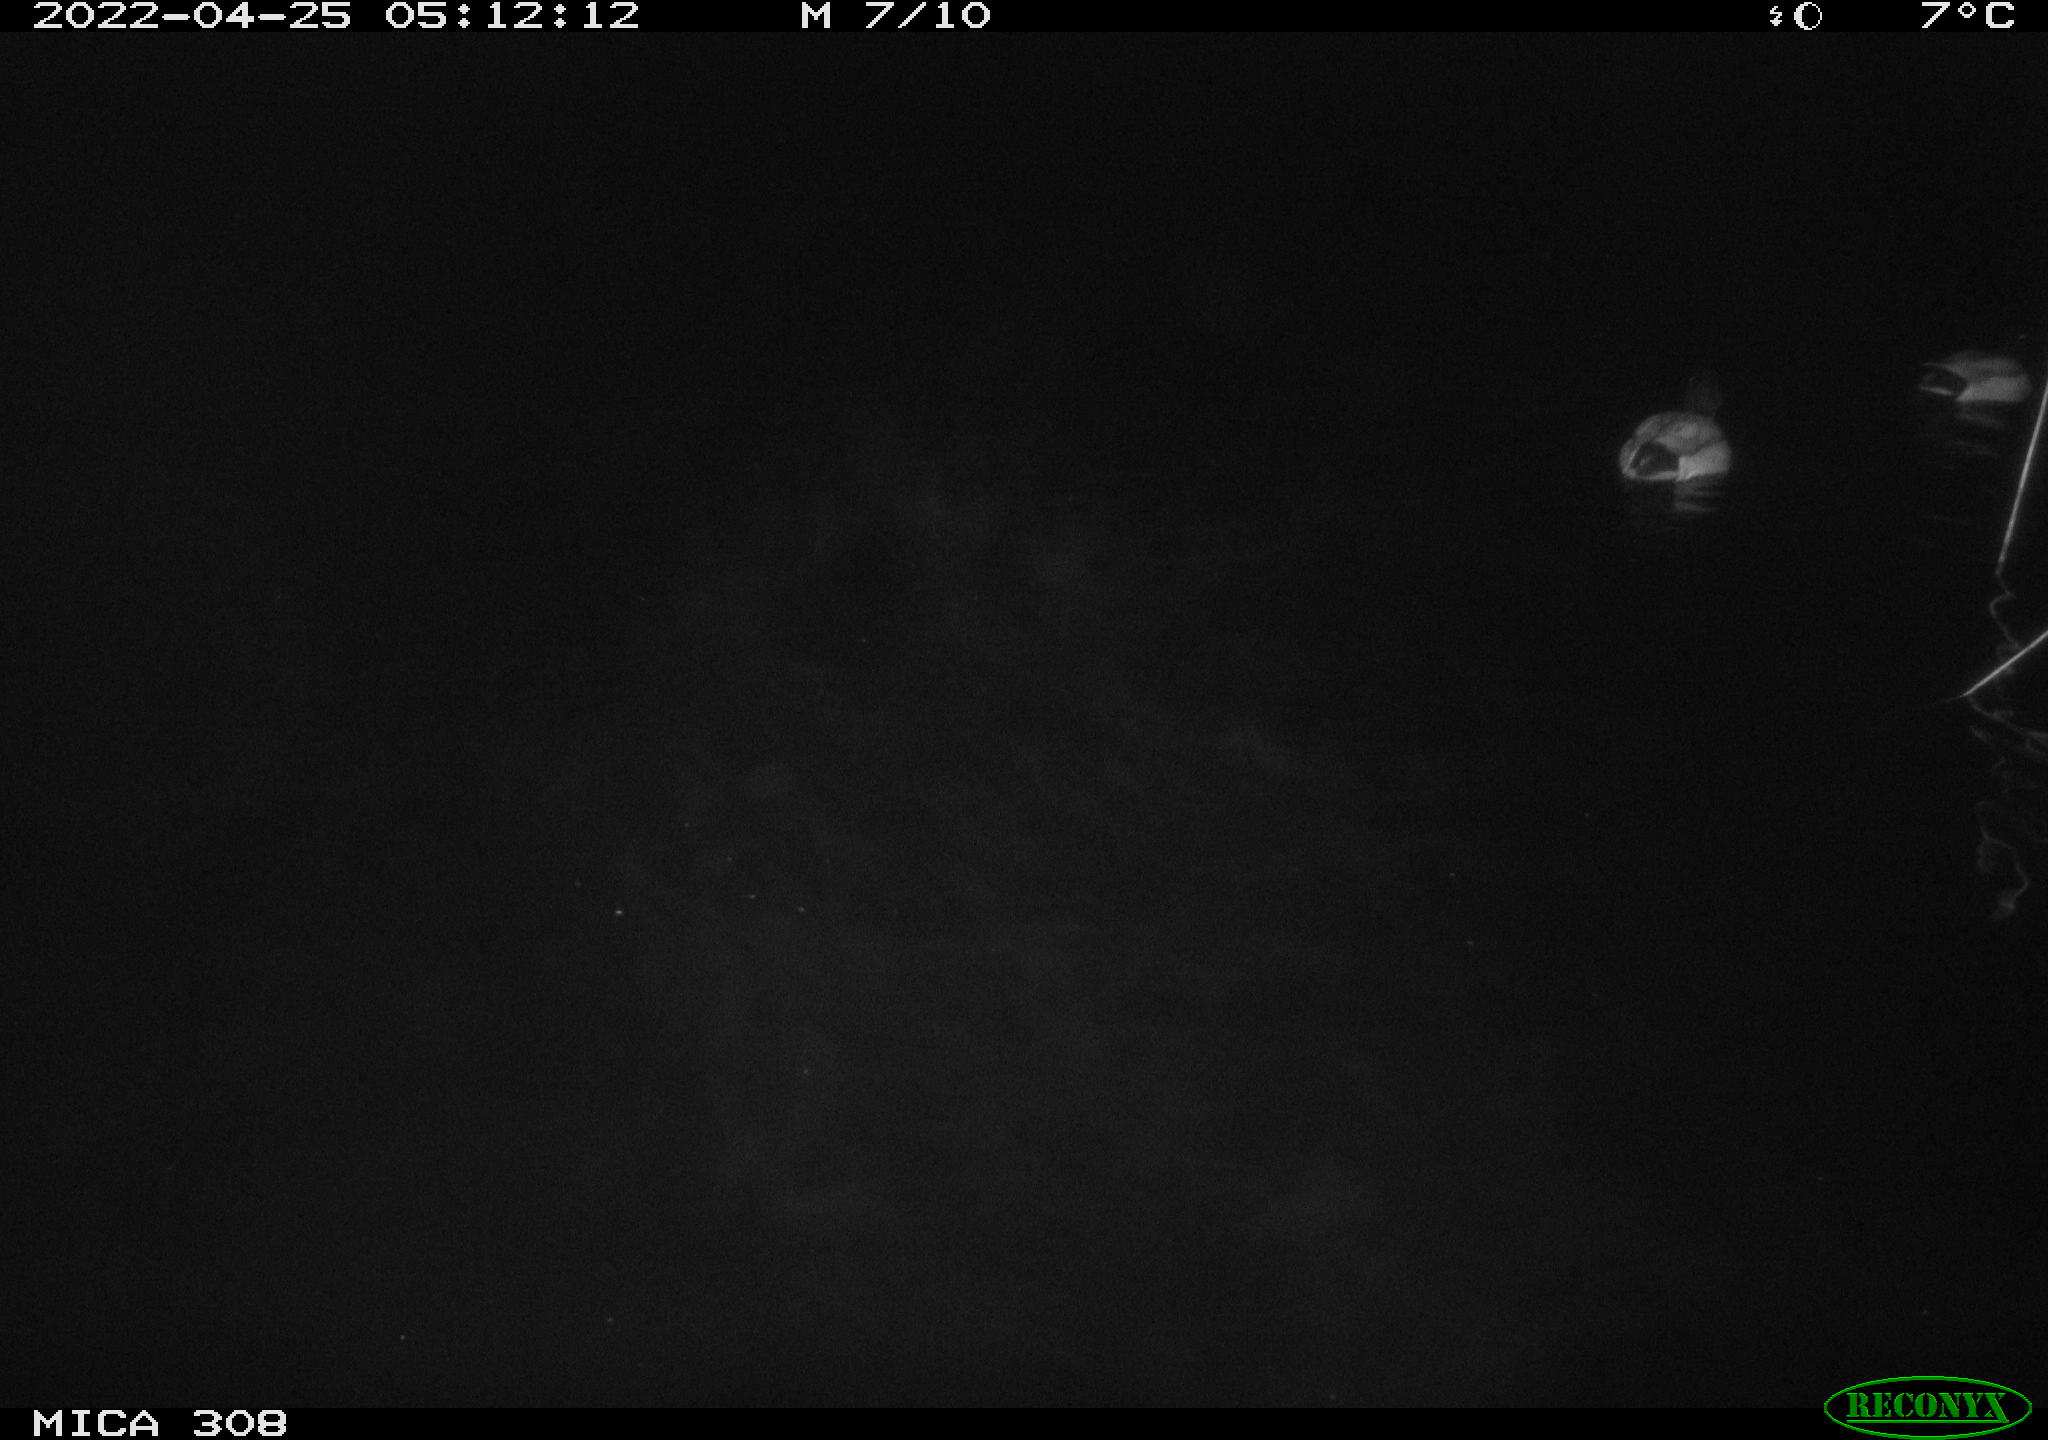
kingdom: Animalia
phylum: Chordata
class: Aves
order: Anseriformes
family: Anatidae
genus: Anas
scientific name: Anas platyrhynchos
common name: Mallard
